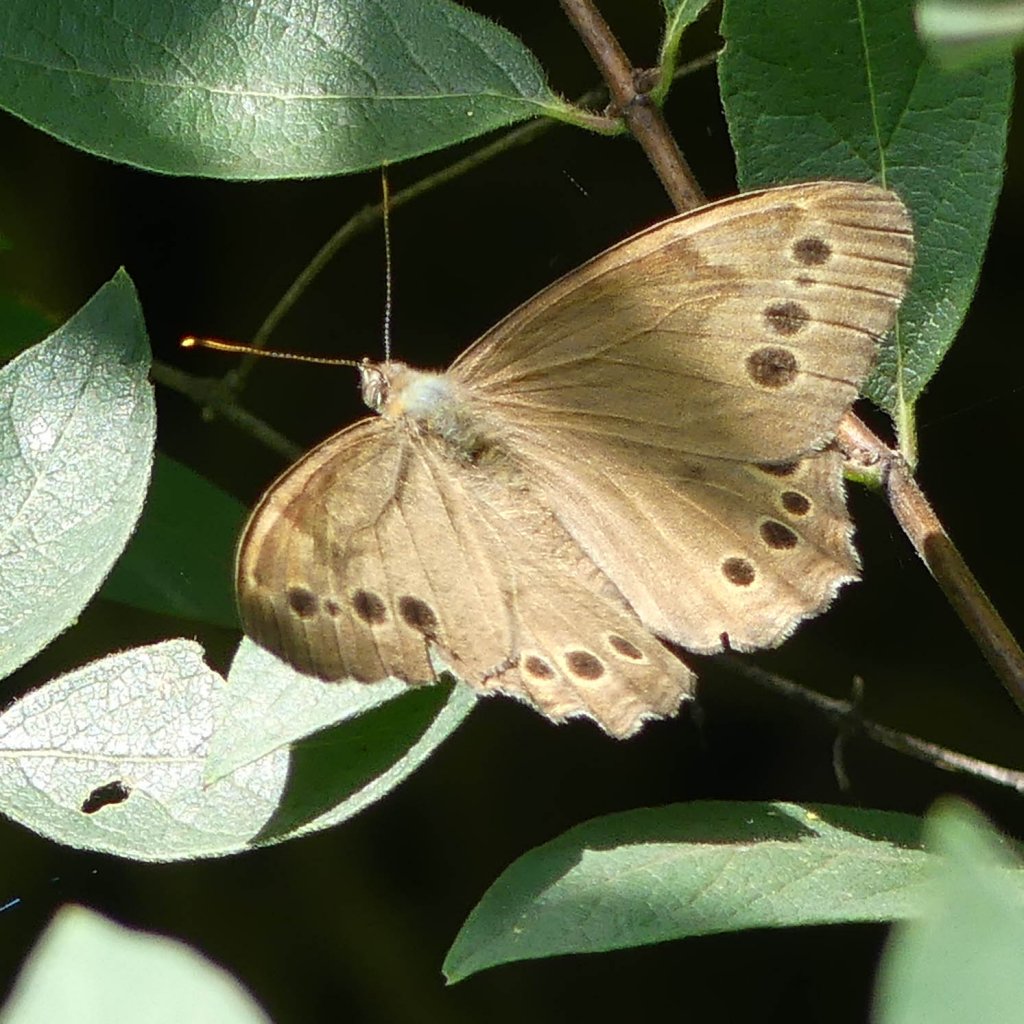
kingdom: Animalia
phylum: Arthropoda
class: Insecta
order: Lepidoptera
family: Nymphalidae
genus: Lethe
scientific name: Lethe anthedon
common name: Northern Pearly-Eye
